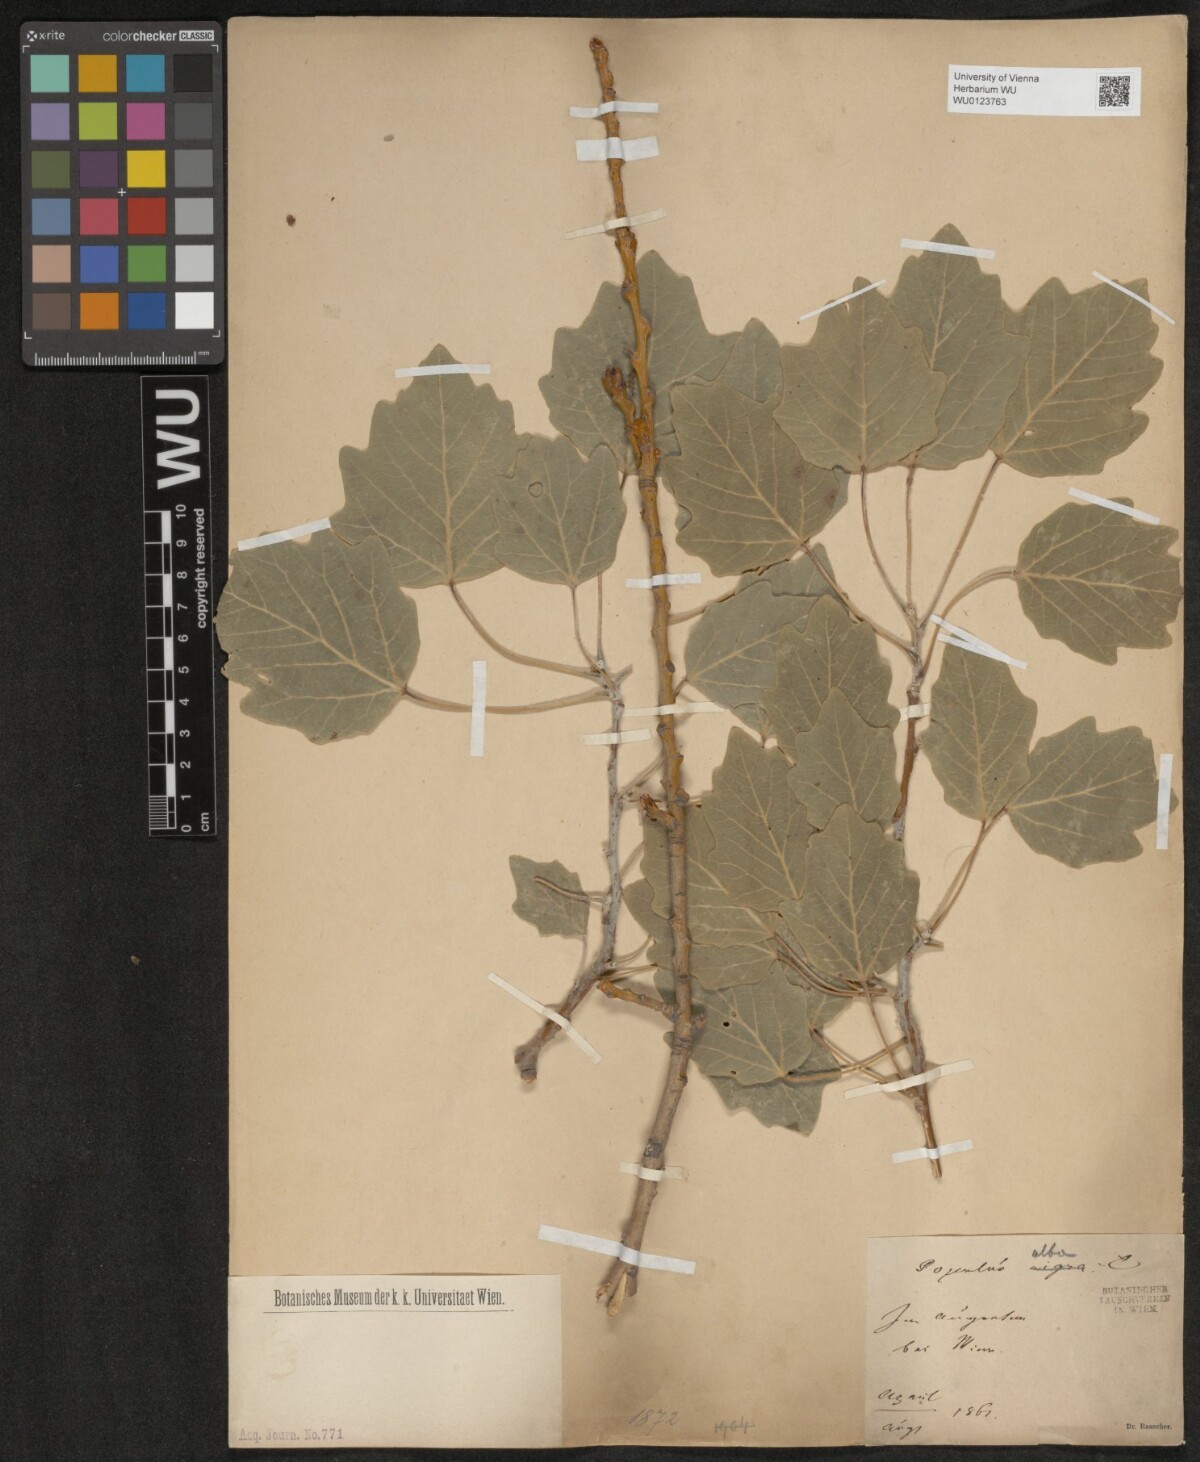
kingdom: Plantae
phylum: Tracheophyta
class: Magnoliopsida
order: Malpighiales
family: Salicaceae
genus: Populus
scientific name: Populus alba
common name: White poplar
